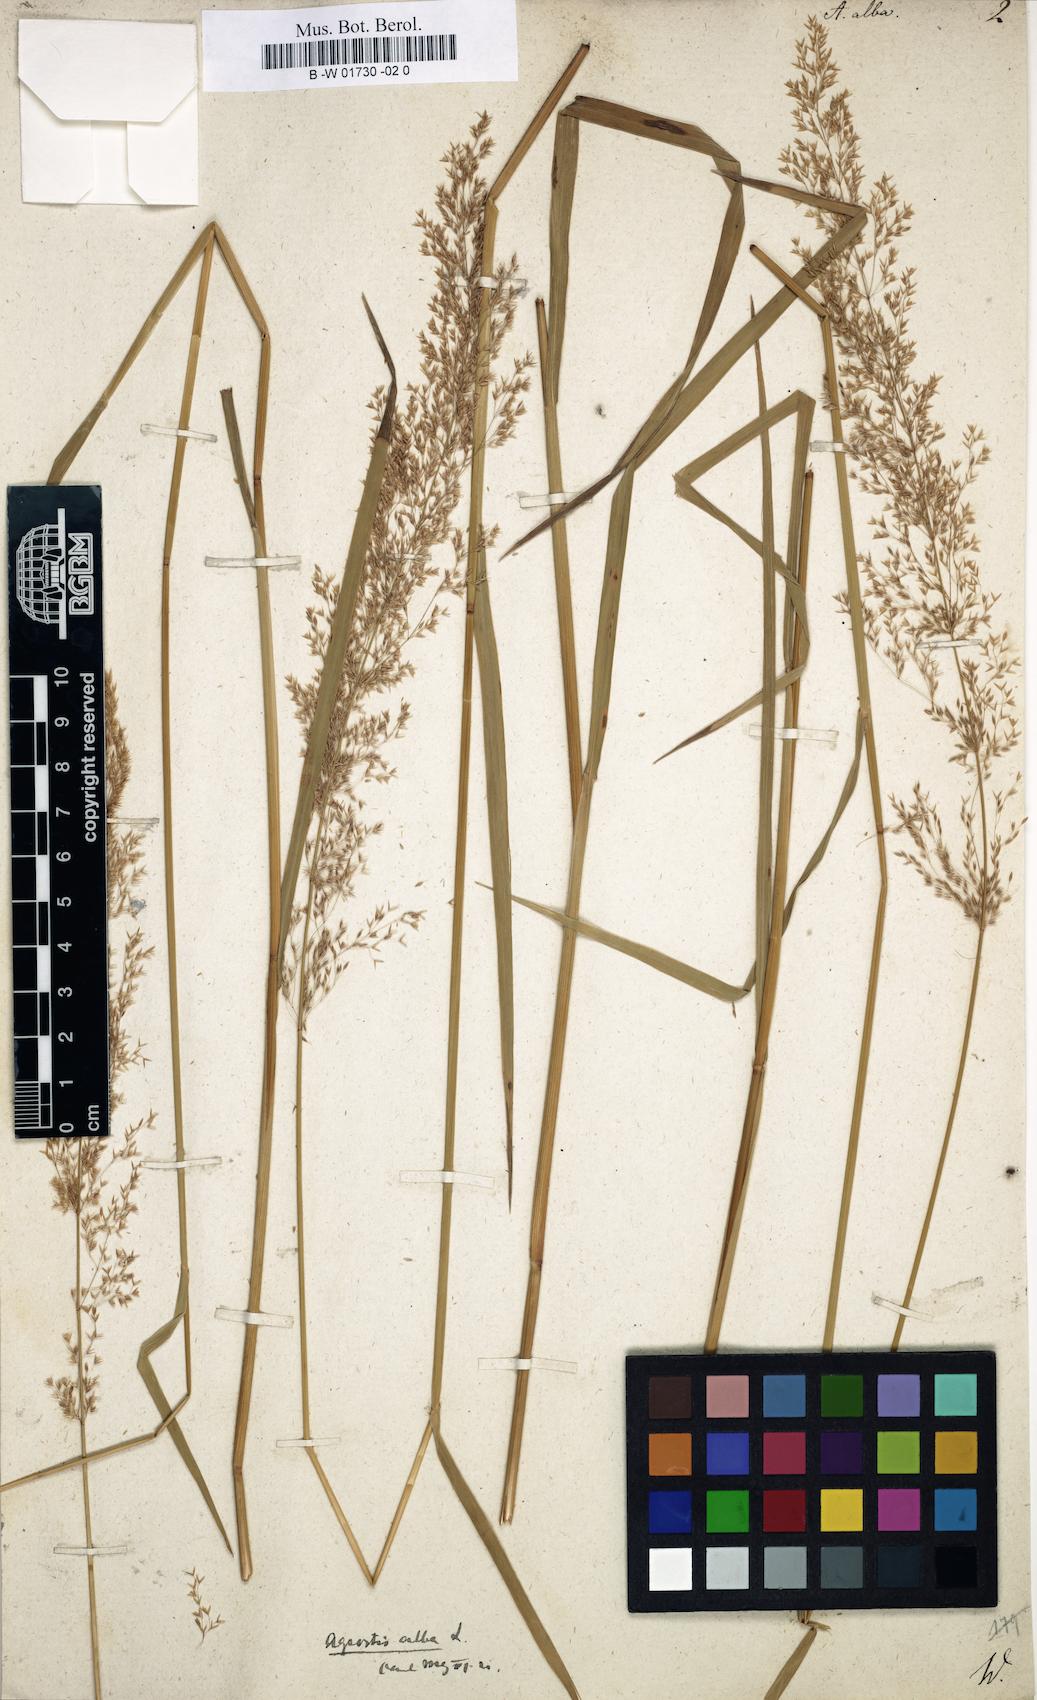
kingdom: Plantae
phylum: Tracheophyta
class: Liliopsida
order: Poales
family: Poaceae
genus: Poa
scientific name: Poa nemoralis
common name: Wood bluegrass
